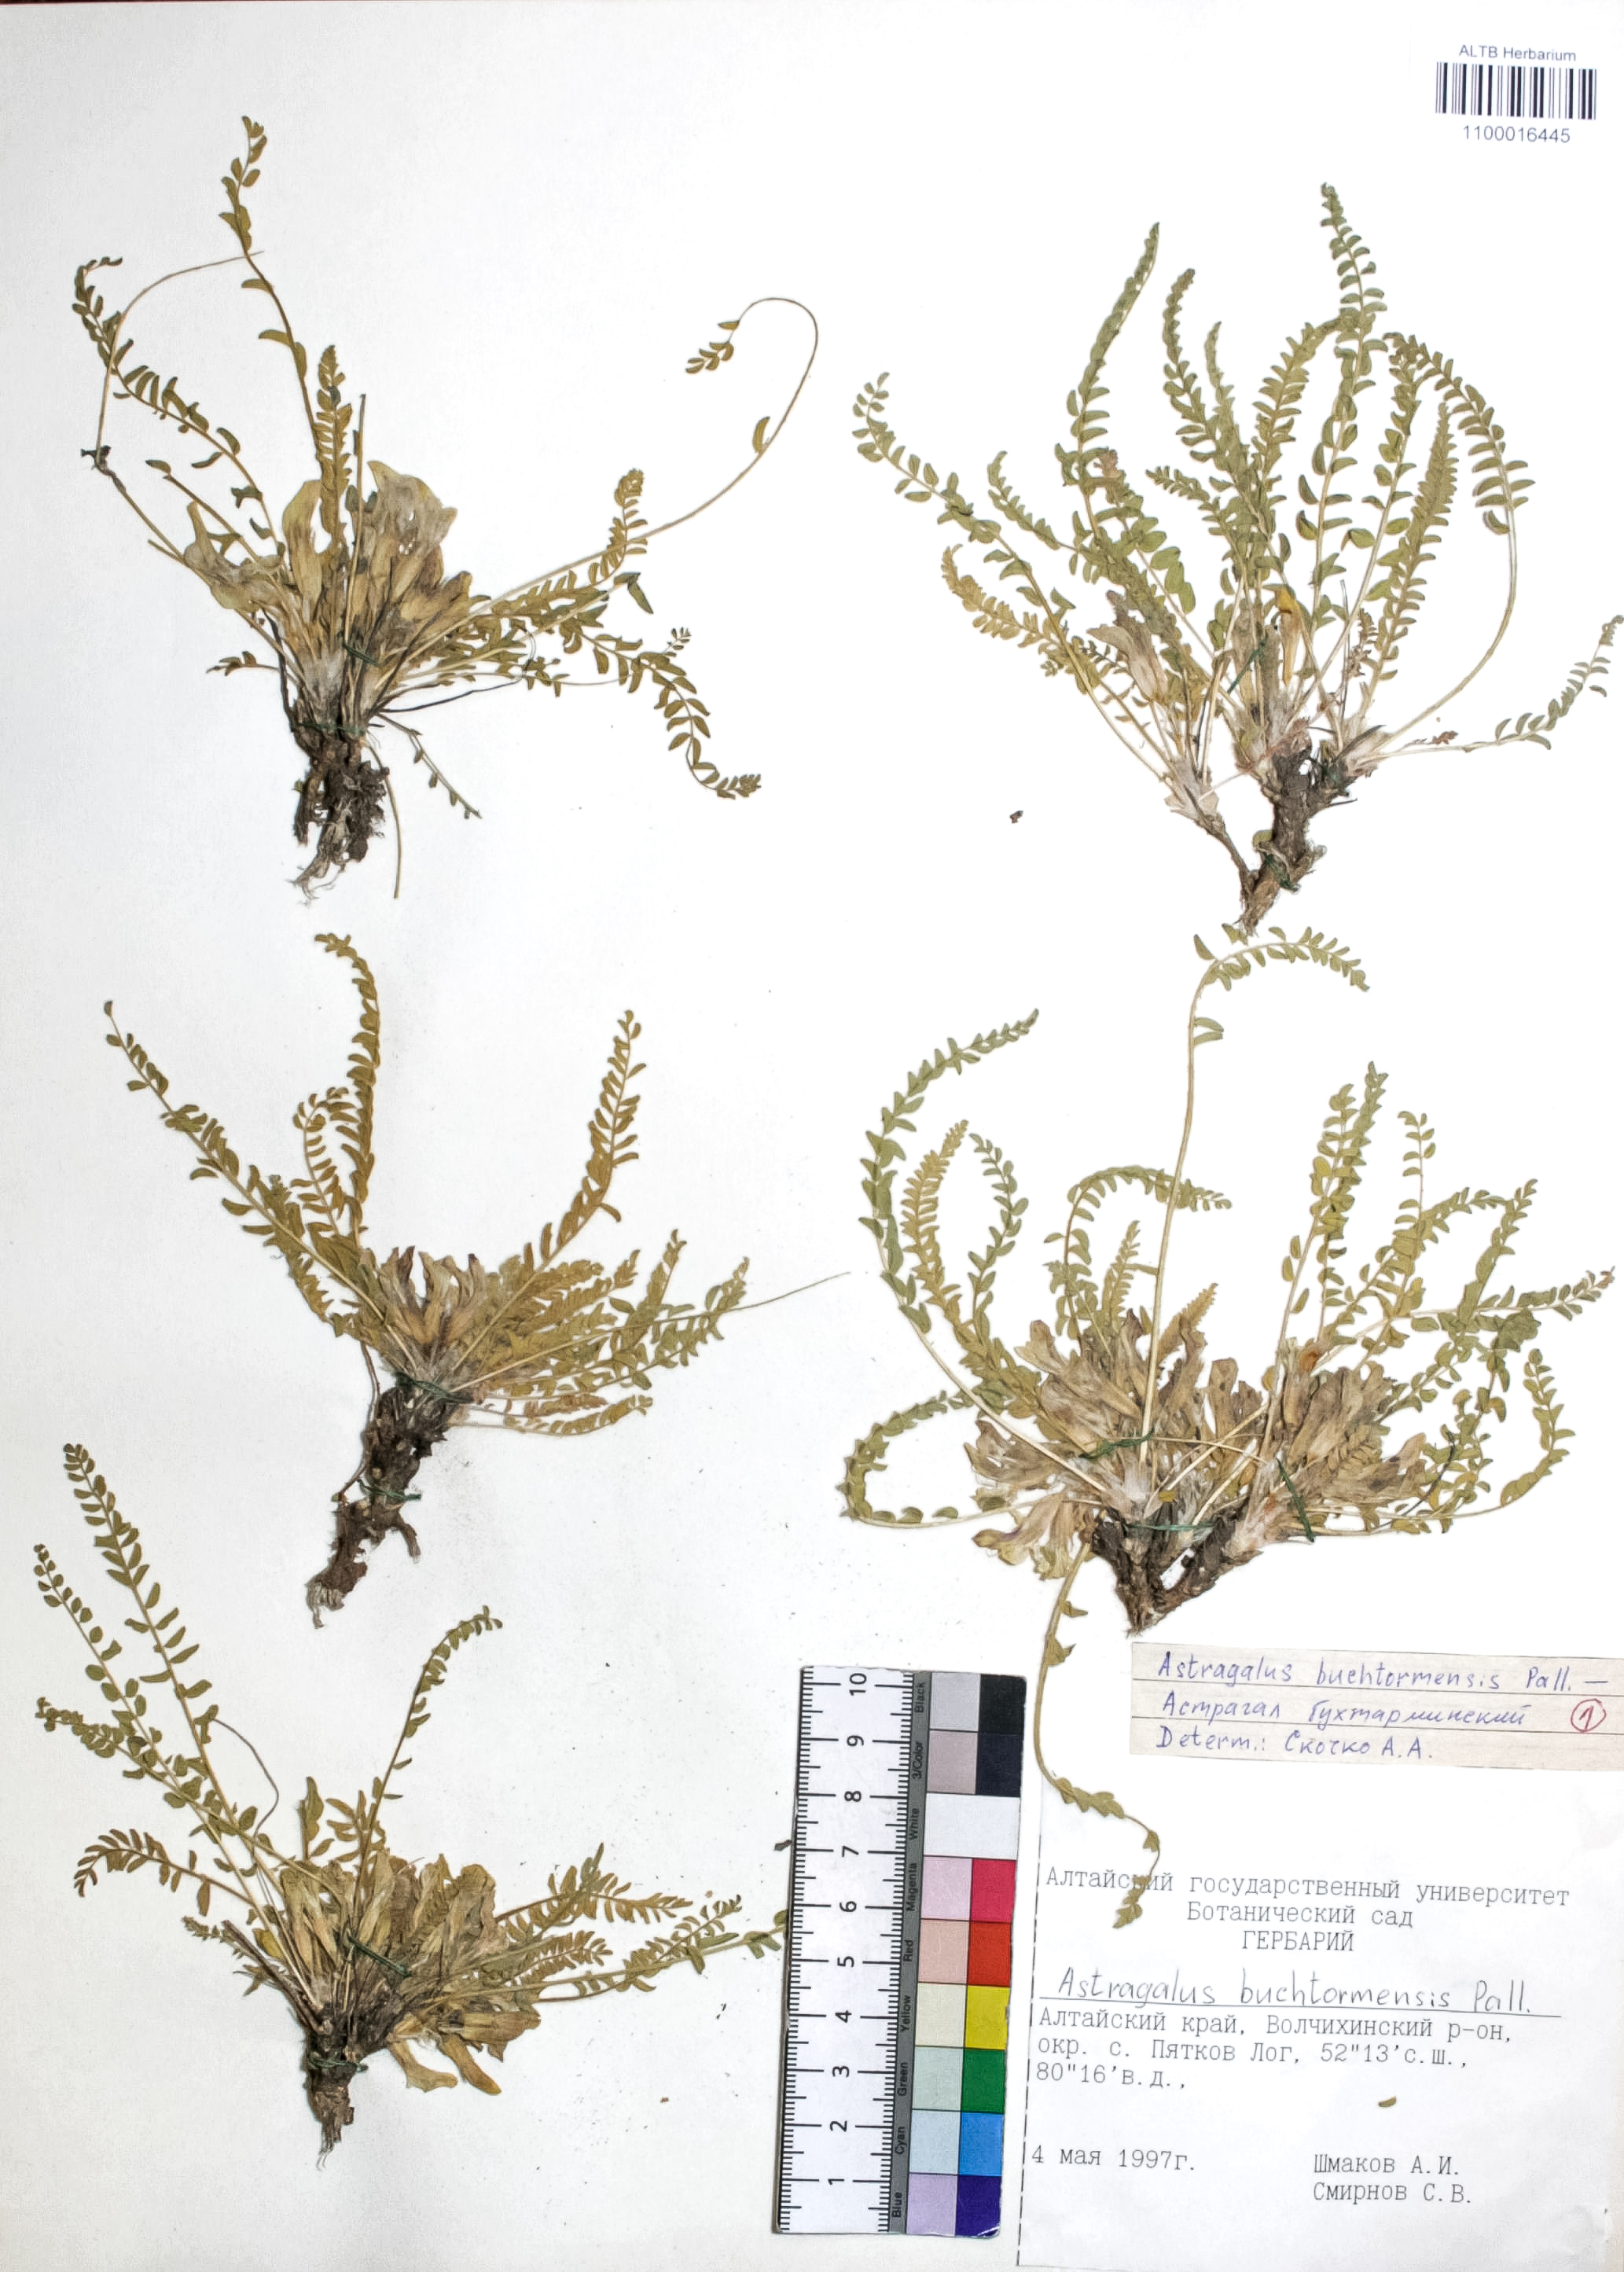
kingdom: Plantae
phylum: Tracheophyta
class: Magnoliopsida
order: Fabales
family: Fabaceae
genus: Astragalus
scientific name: Astragalus buchtormensis
